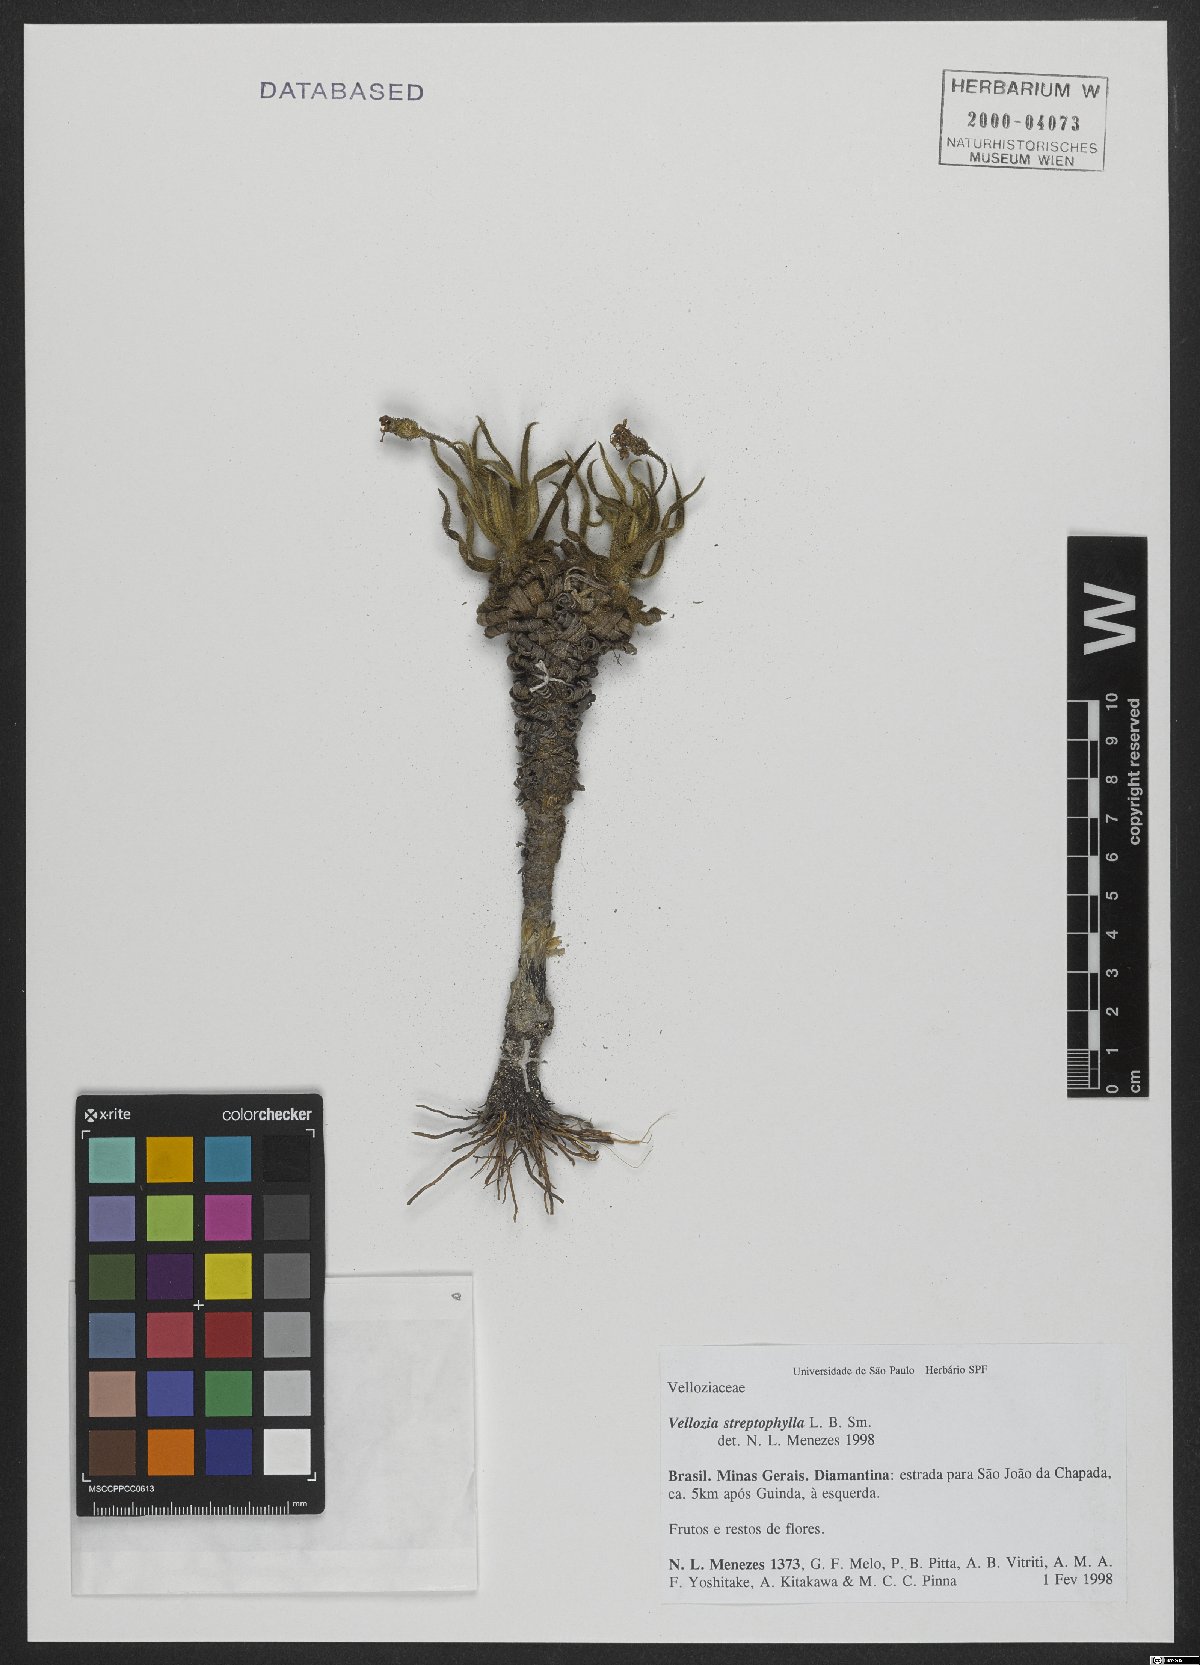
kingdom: Plantae
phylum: Tracheophyta
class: Liliopsida
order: Pandanales
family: Velloziaceae
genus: Vellozia
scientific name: Vellozia streptophylla
